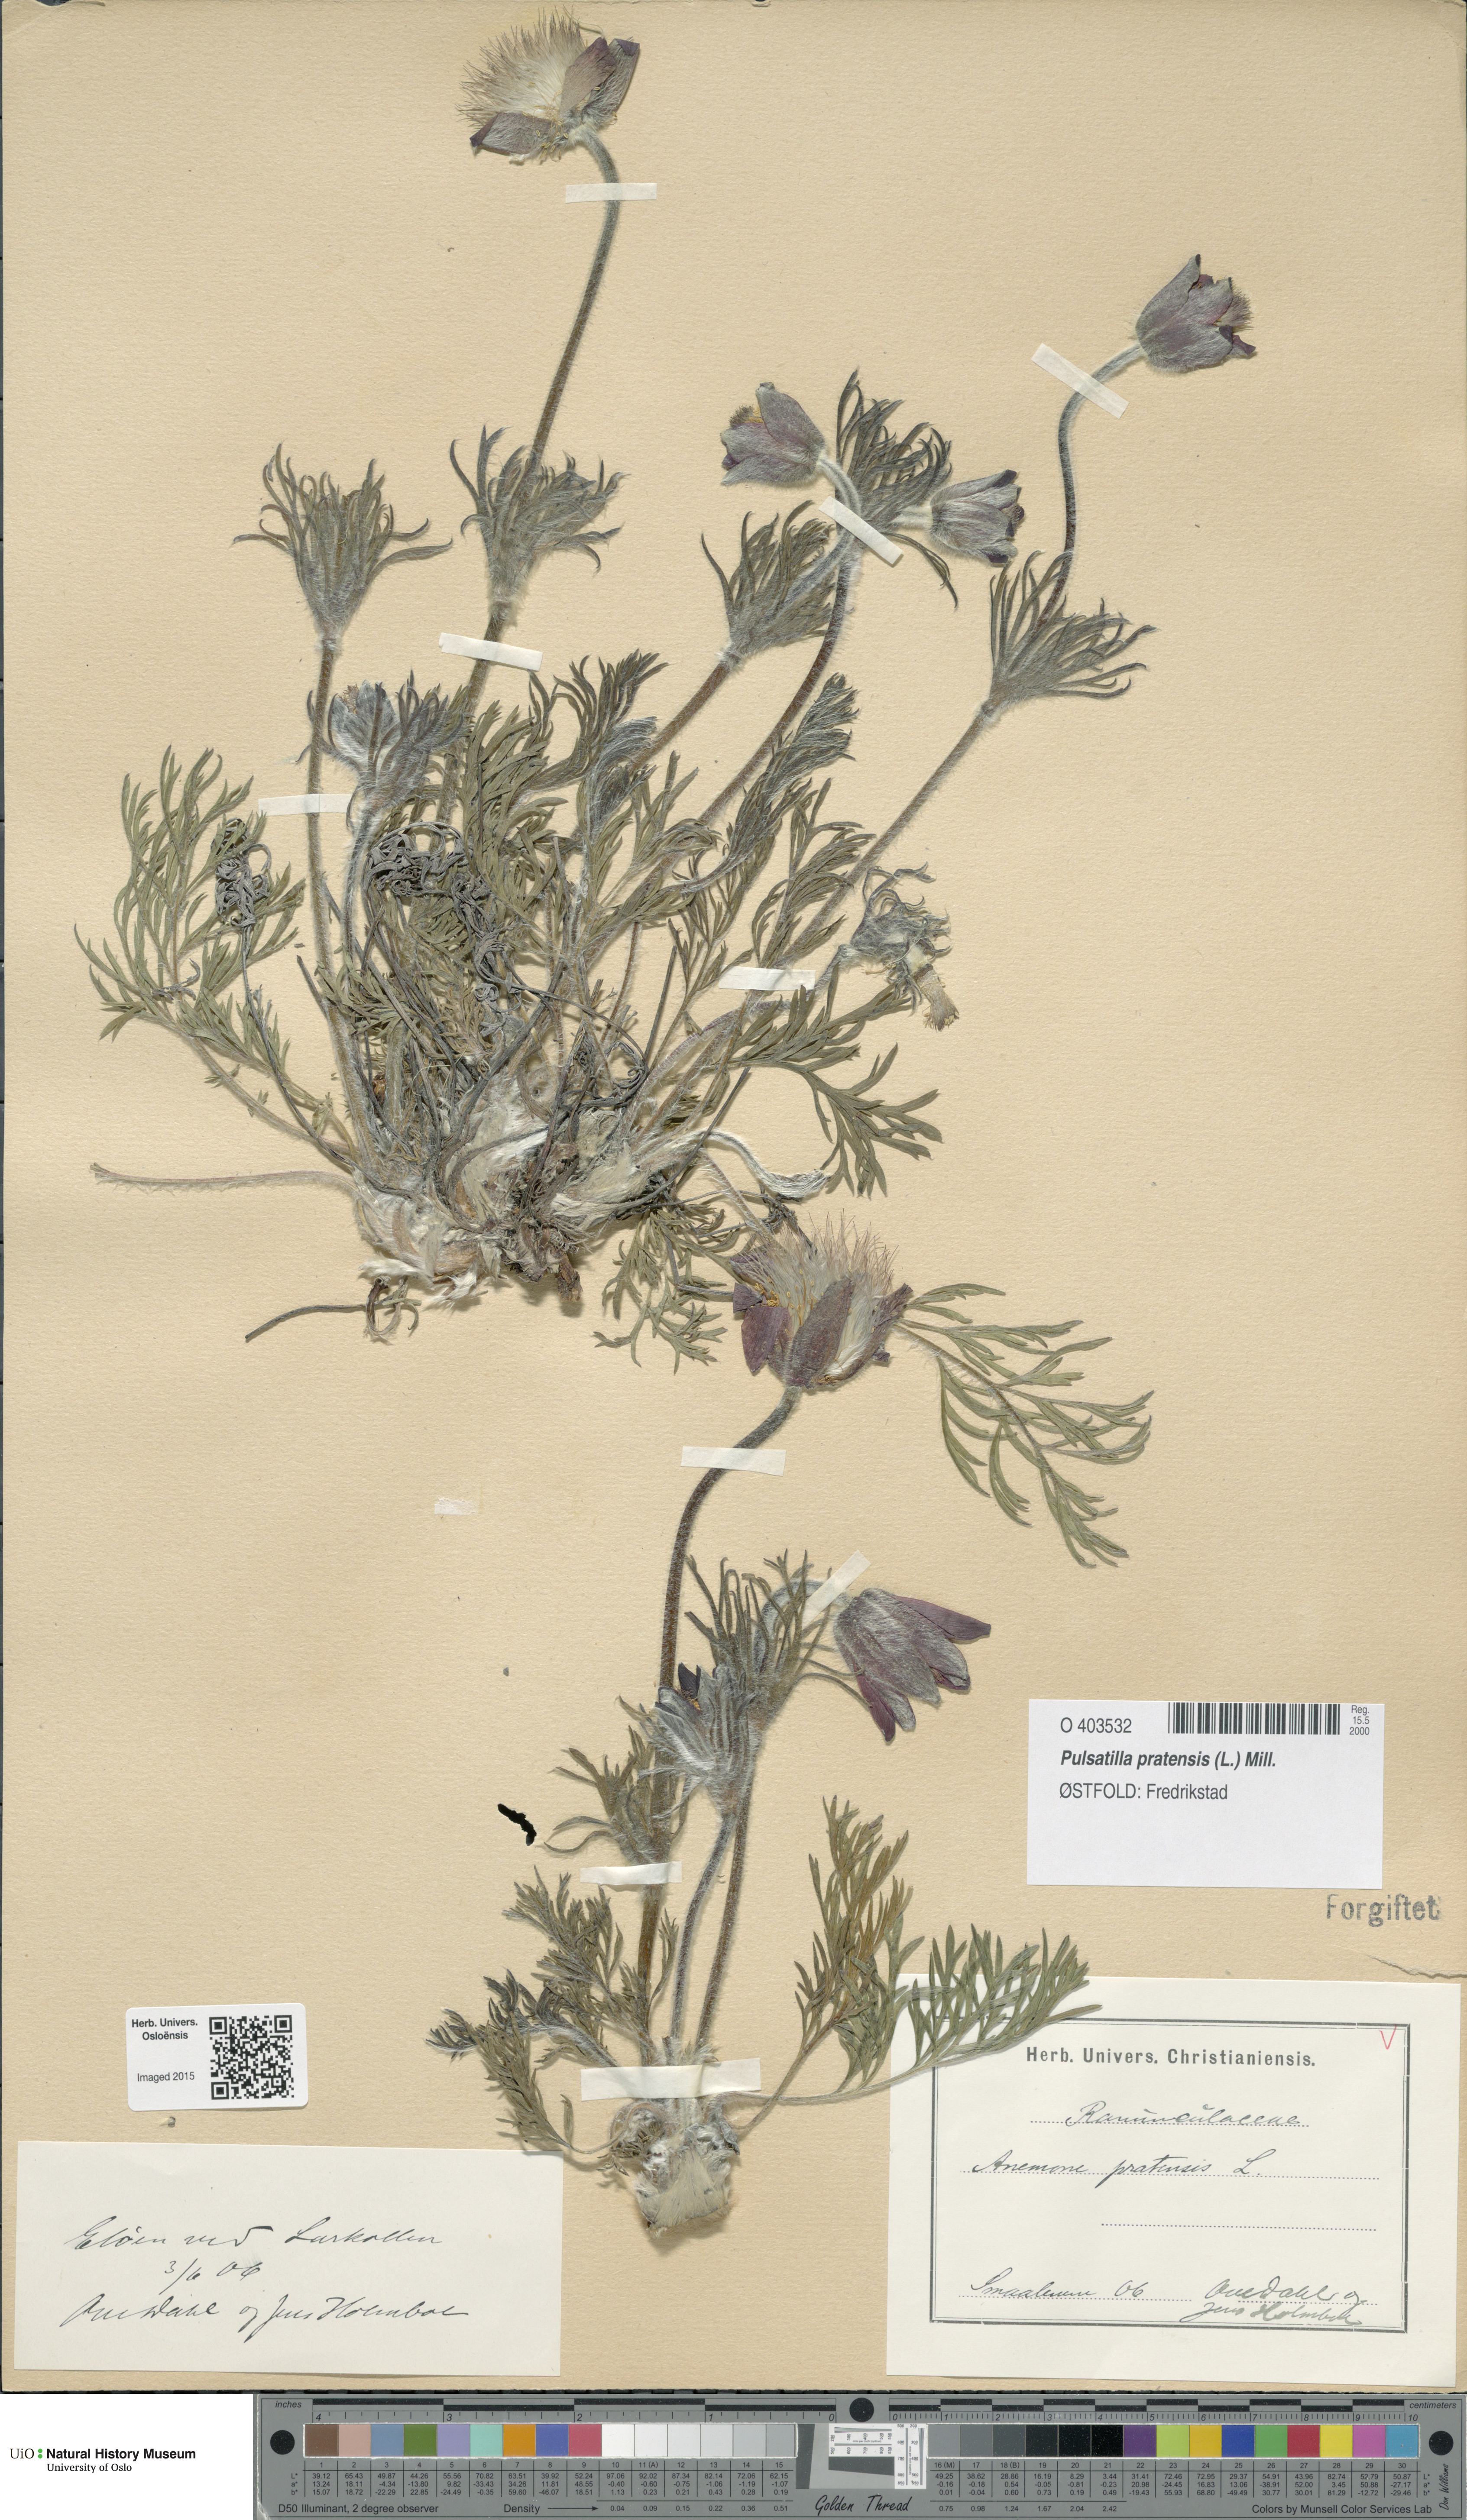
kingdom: Plantae
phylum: Tracheophyta
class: Magnoliopsida
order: Ranunculales
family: Ranunculaceae
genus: Pulsatilla
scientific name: Pulsatilla pratensis
